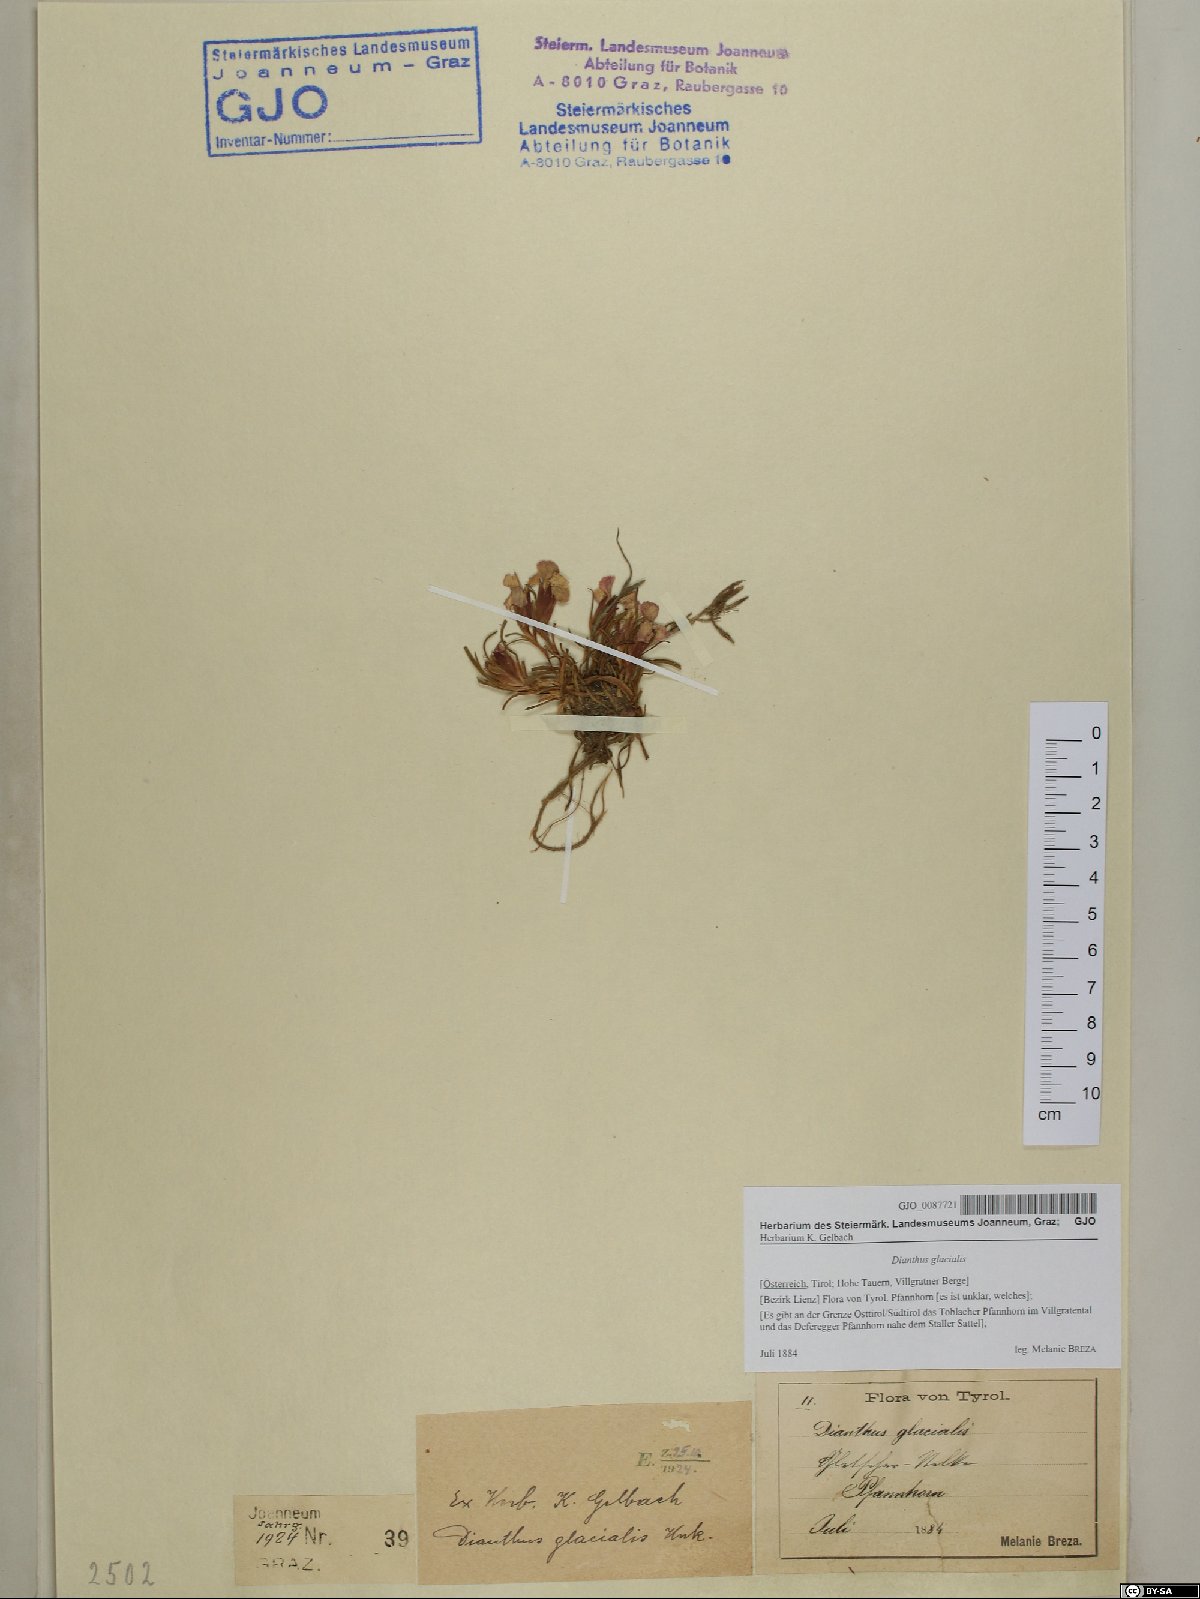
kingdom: Plantae
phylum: Tracheophyta
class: Magnoliopsida
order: Caryophyllales
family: Caryophyllaceae
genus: Dianthus
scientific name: Dianthus glacialis
